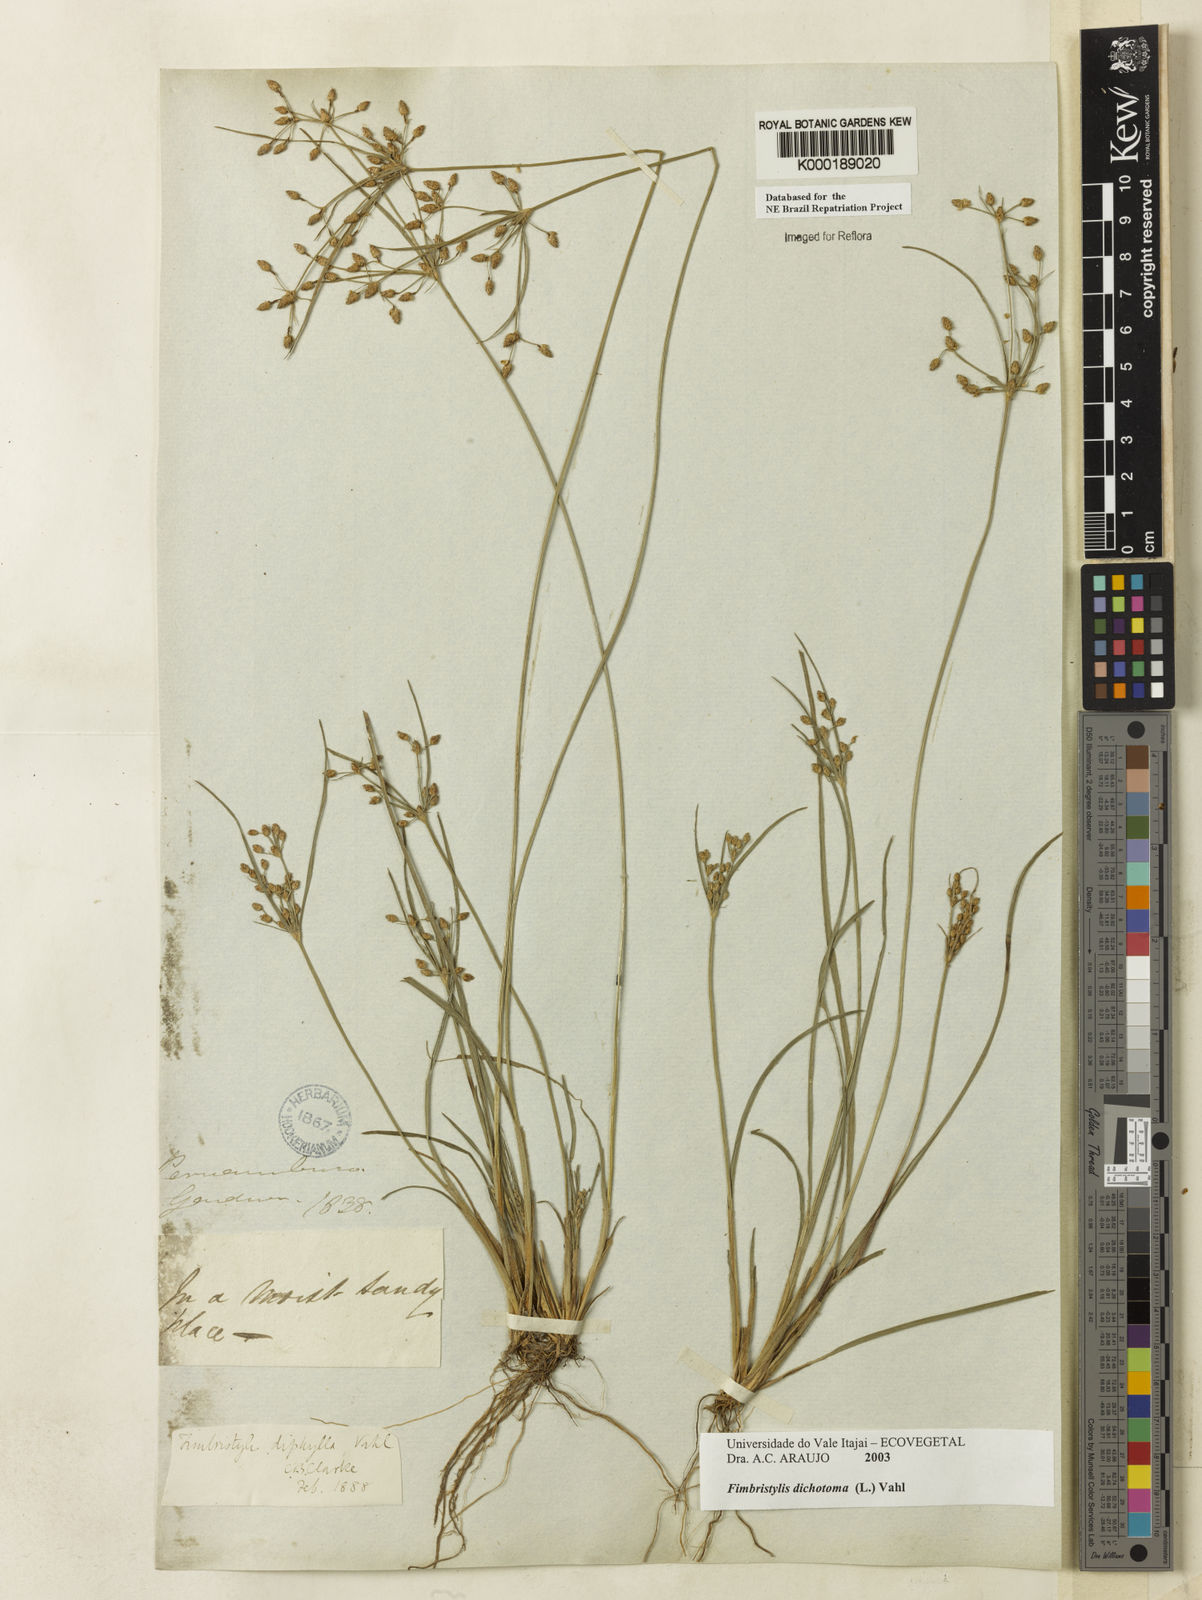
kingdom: Plantae
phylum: Tracheophyta
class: Liliopsida
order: Poales
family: Cyperaceae
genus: Fimbristylis
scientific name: Fimbristylis dichotoma
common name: Forked fimbry
